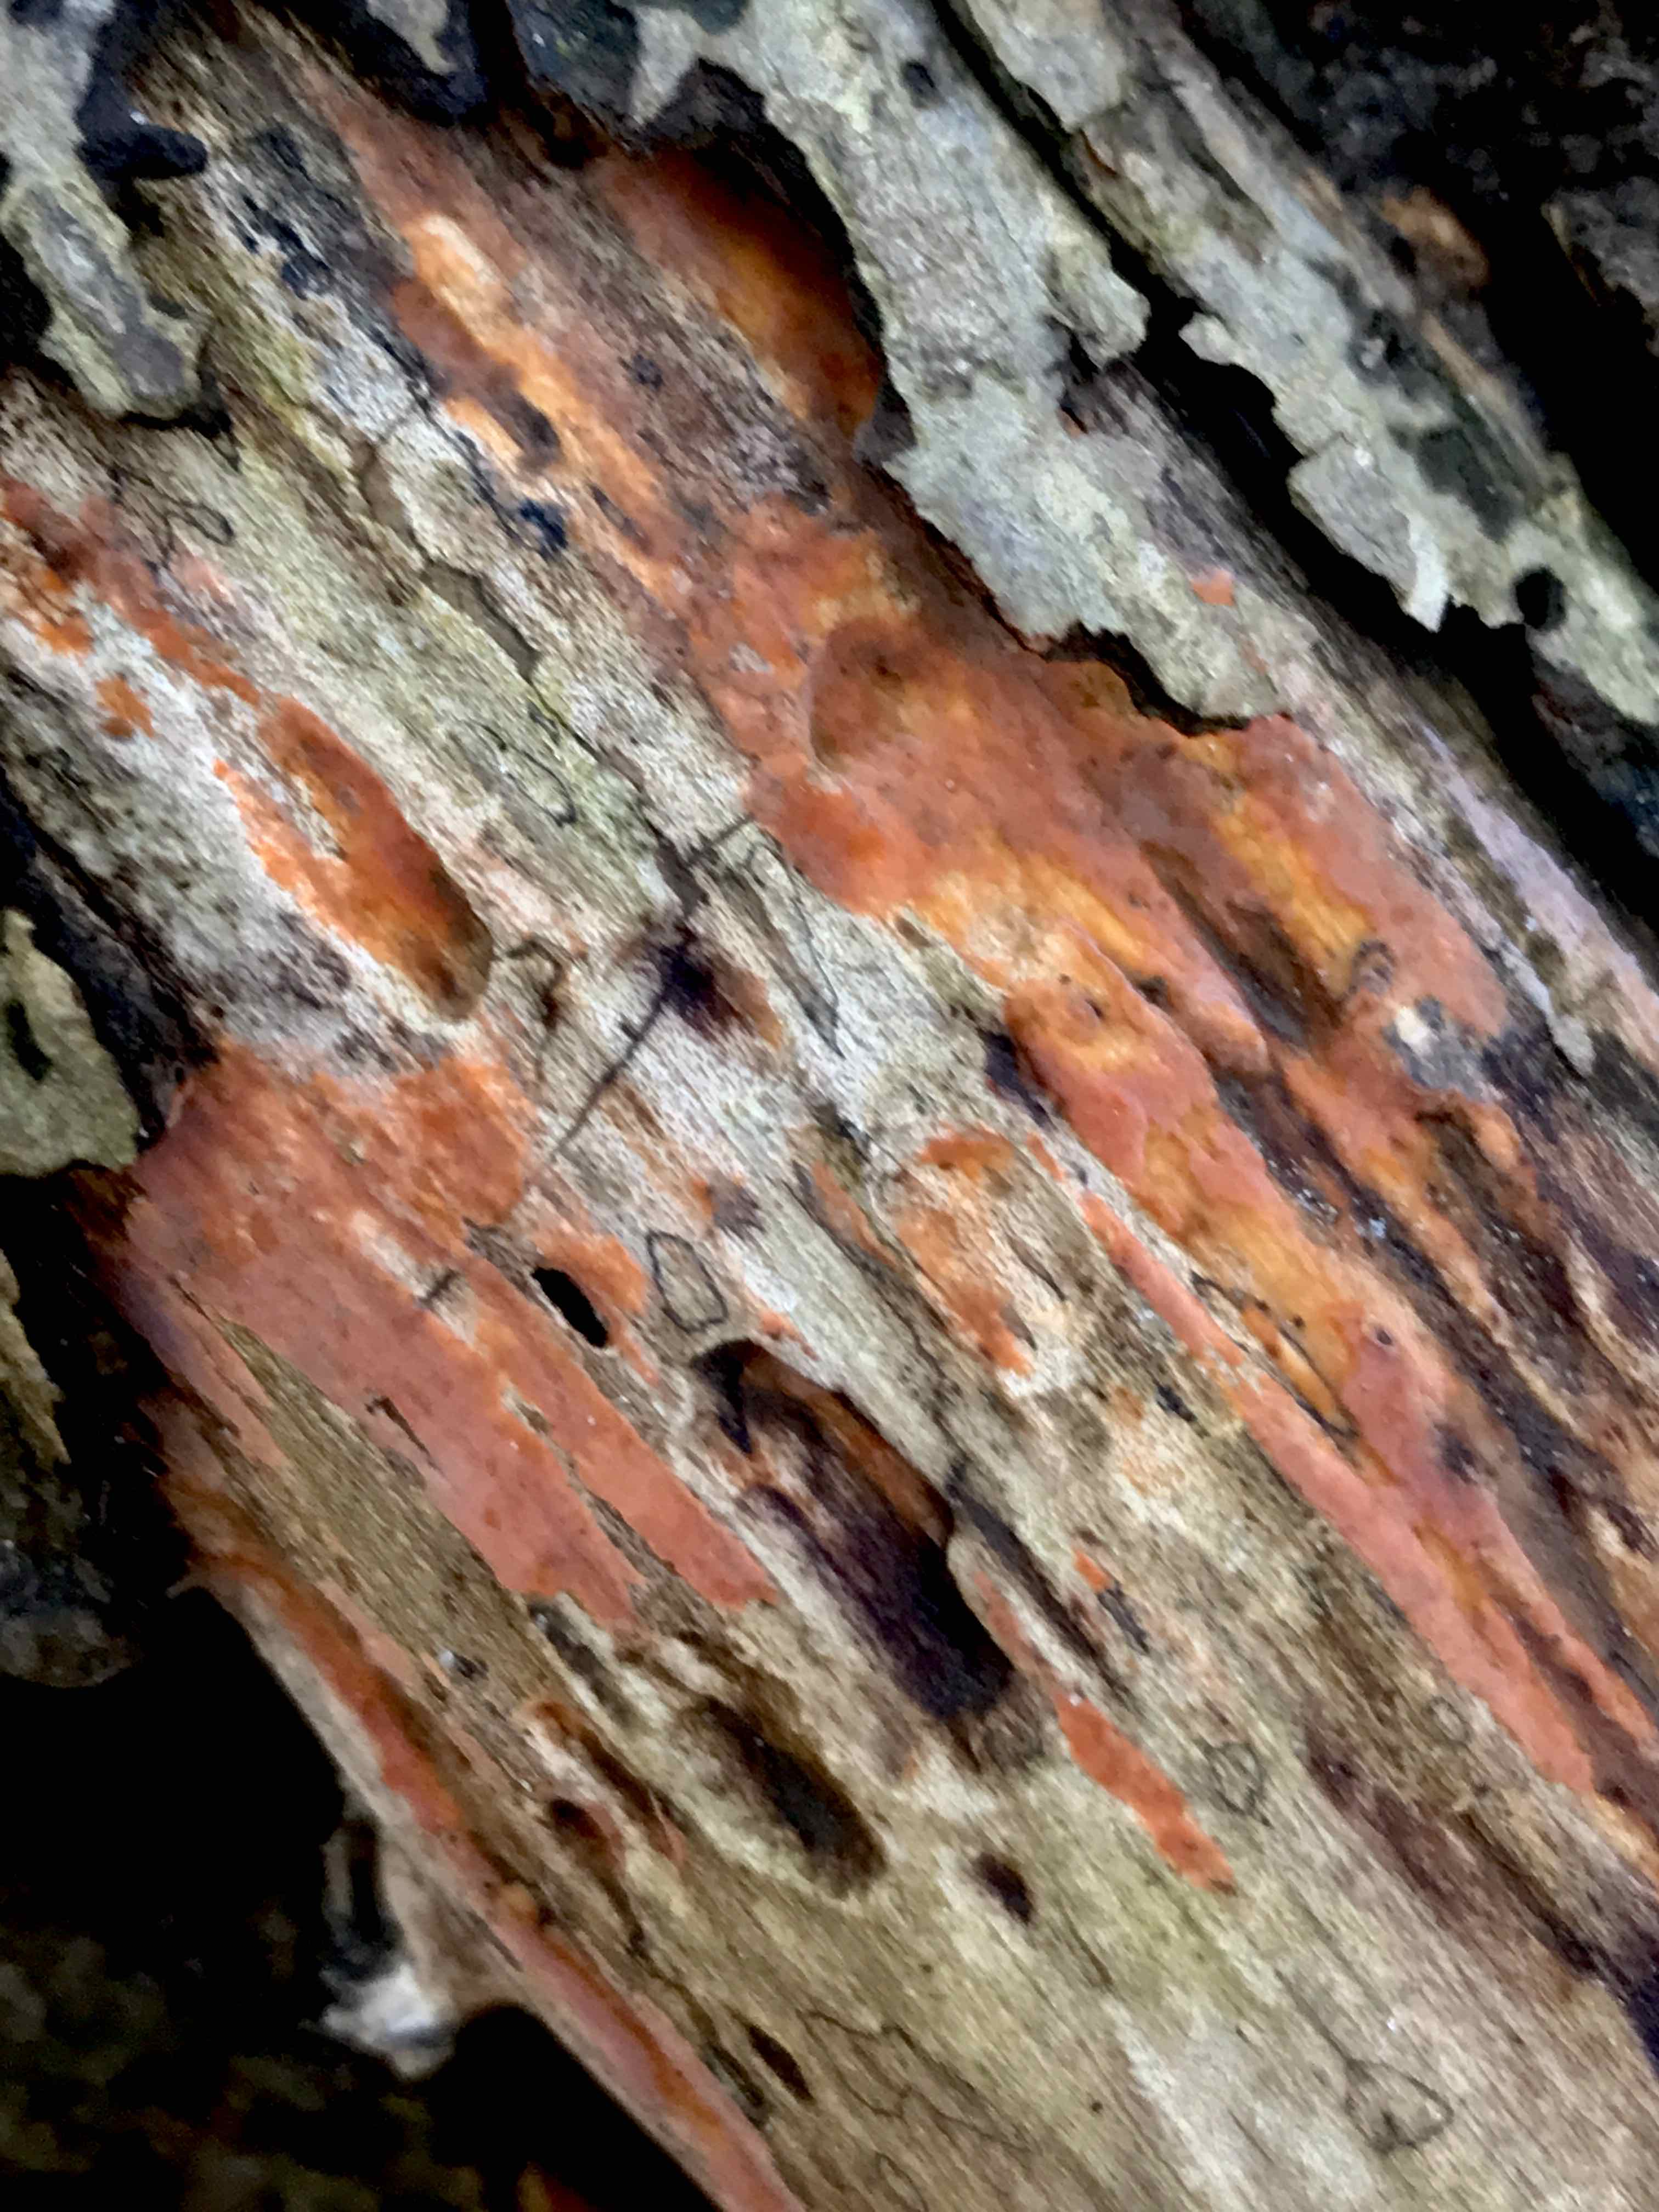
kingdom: Fungi
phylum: Basidiomycota
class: Agaricomycetes
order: Russulales
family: Peniophoraceae
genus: Peniophora
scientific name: Peniophora incarnata
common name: laksefarvet voksskind
